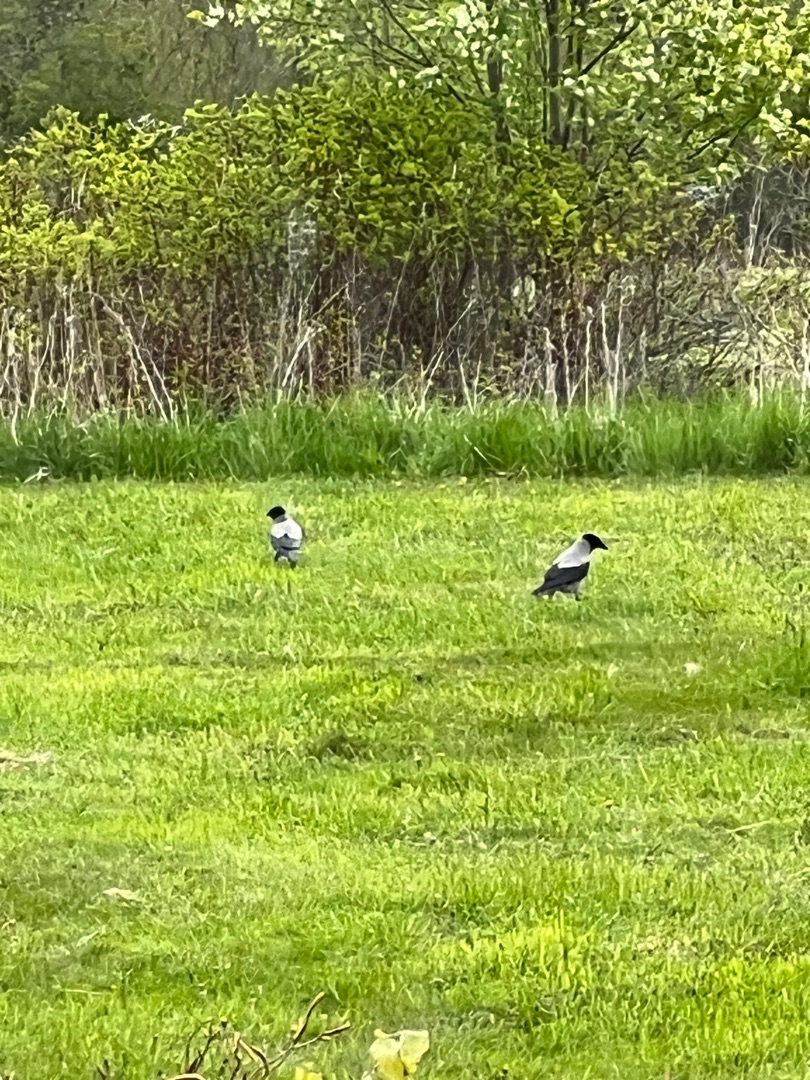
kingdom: Animalia
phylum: Chordata
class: Aves
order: Passeriformes
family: Corvidae
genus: Corvus
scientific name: Corvus cornix
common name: Gråkrage
